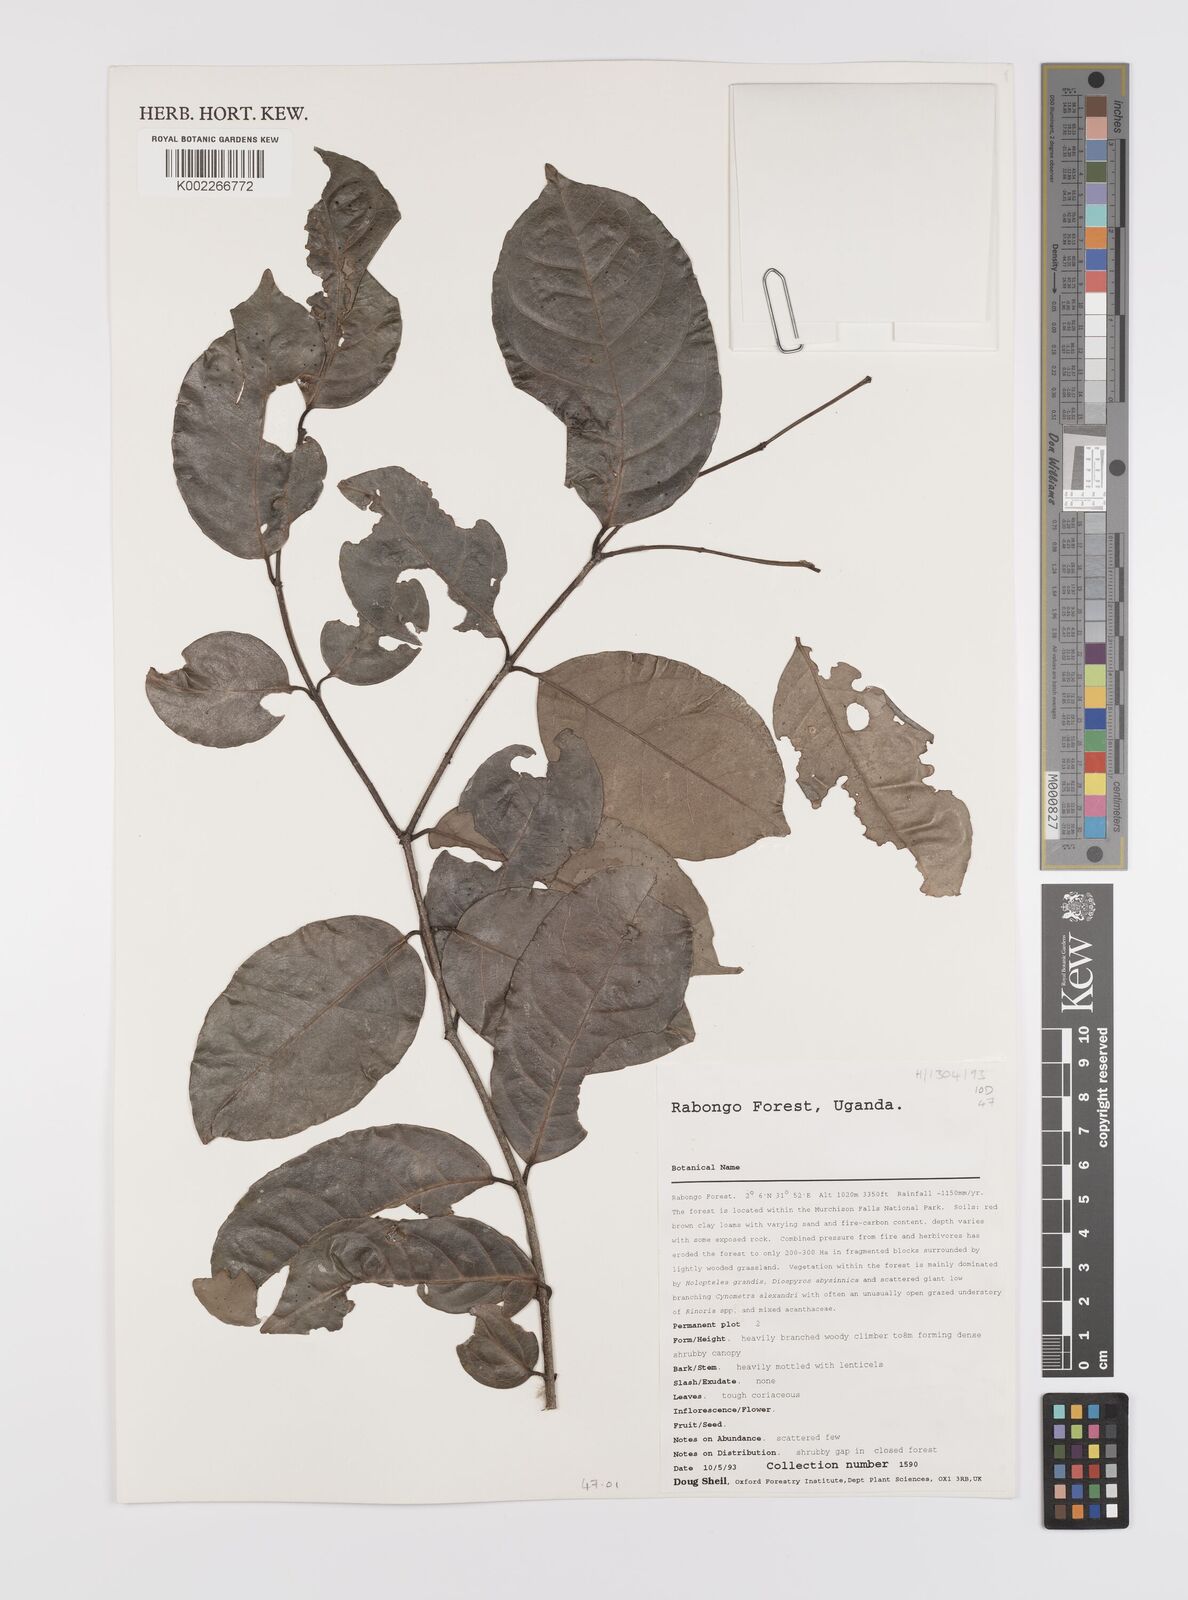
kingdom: Plantae
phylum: Tracheophyta
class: Magnoliopsida
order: Celastrales
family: Celastraceae
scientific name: Celastraceae
